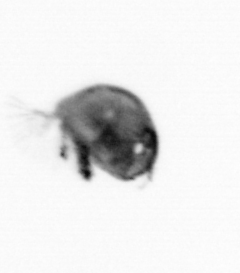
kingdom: Animalia
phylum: Arthropoda
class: Maxillopoda
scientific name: Maxillopoda
